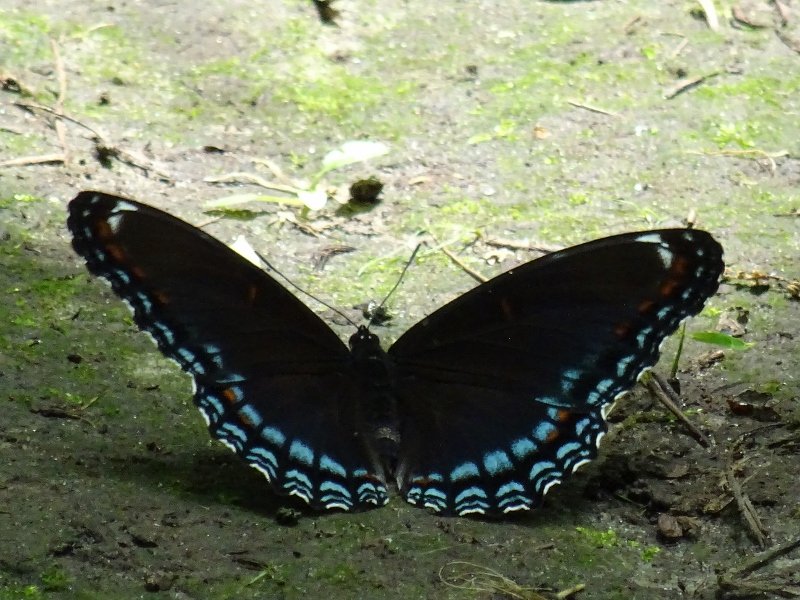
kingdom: Animalia
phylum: Arthropoda
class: Insecta
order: Lepidoptera
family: Nymphalidae
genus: Limenitis
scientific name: Limenitis astyanax
